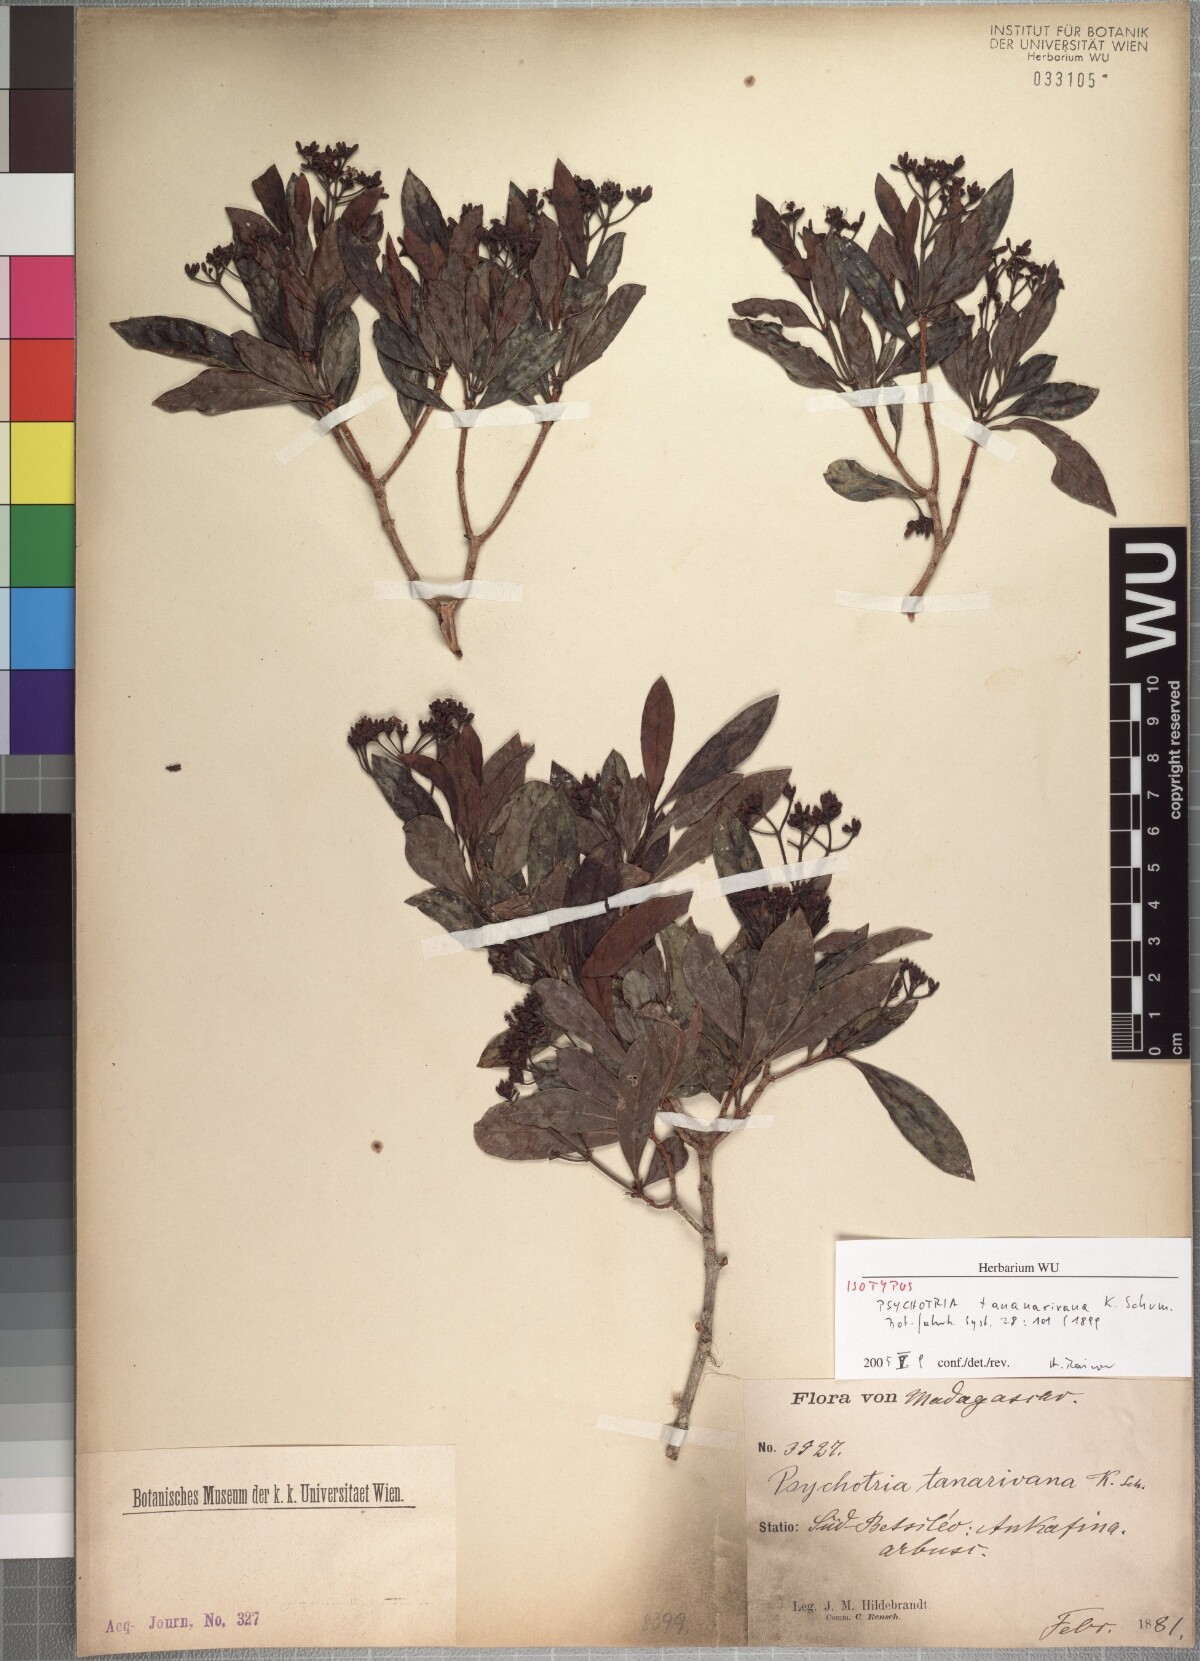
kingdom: Plantae
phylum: Tracheophyta
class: Magnoliopsida
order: Gentianales
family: Rubiaceae
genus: Psychotria
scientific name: Psychotria retiphlebia
